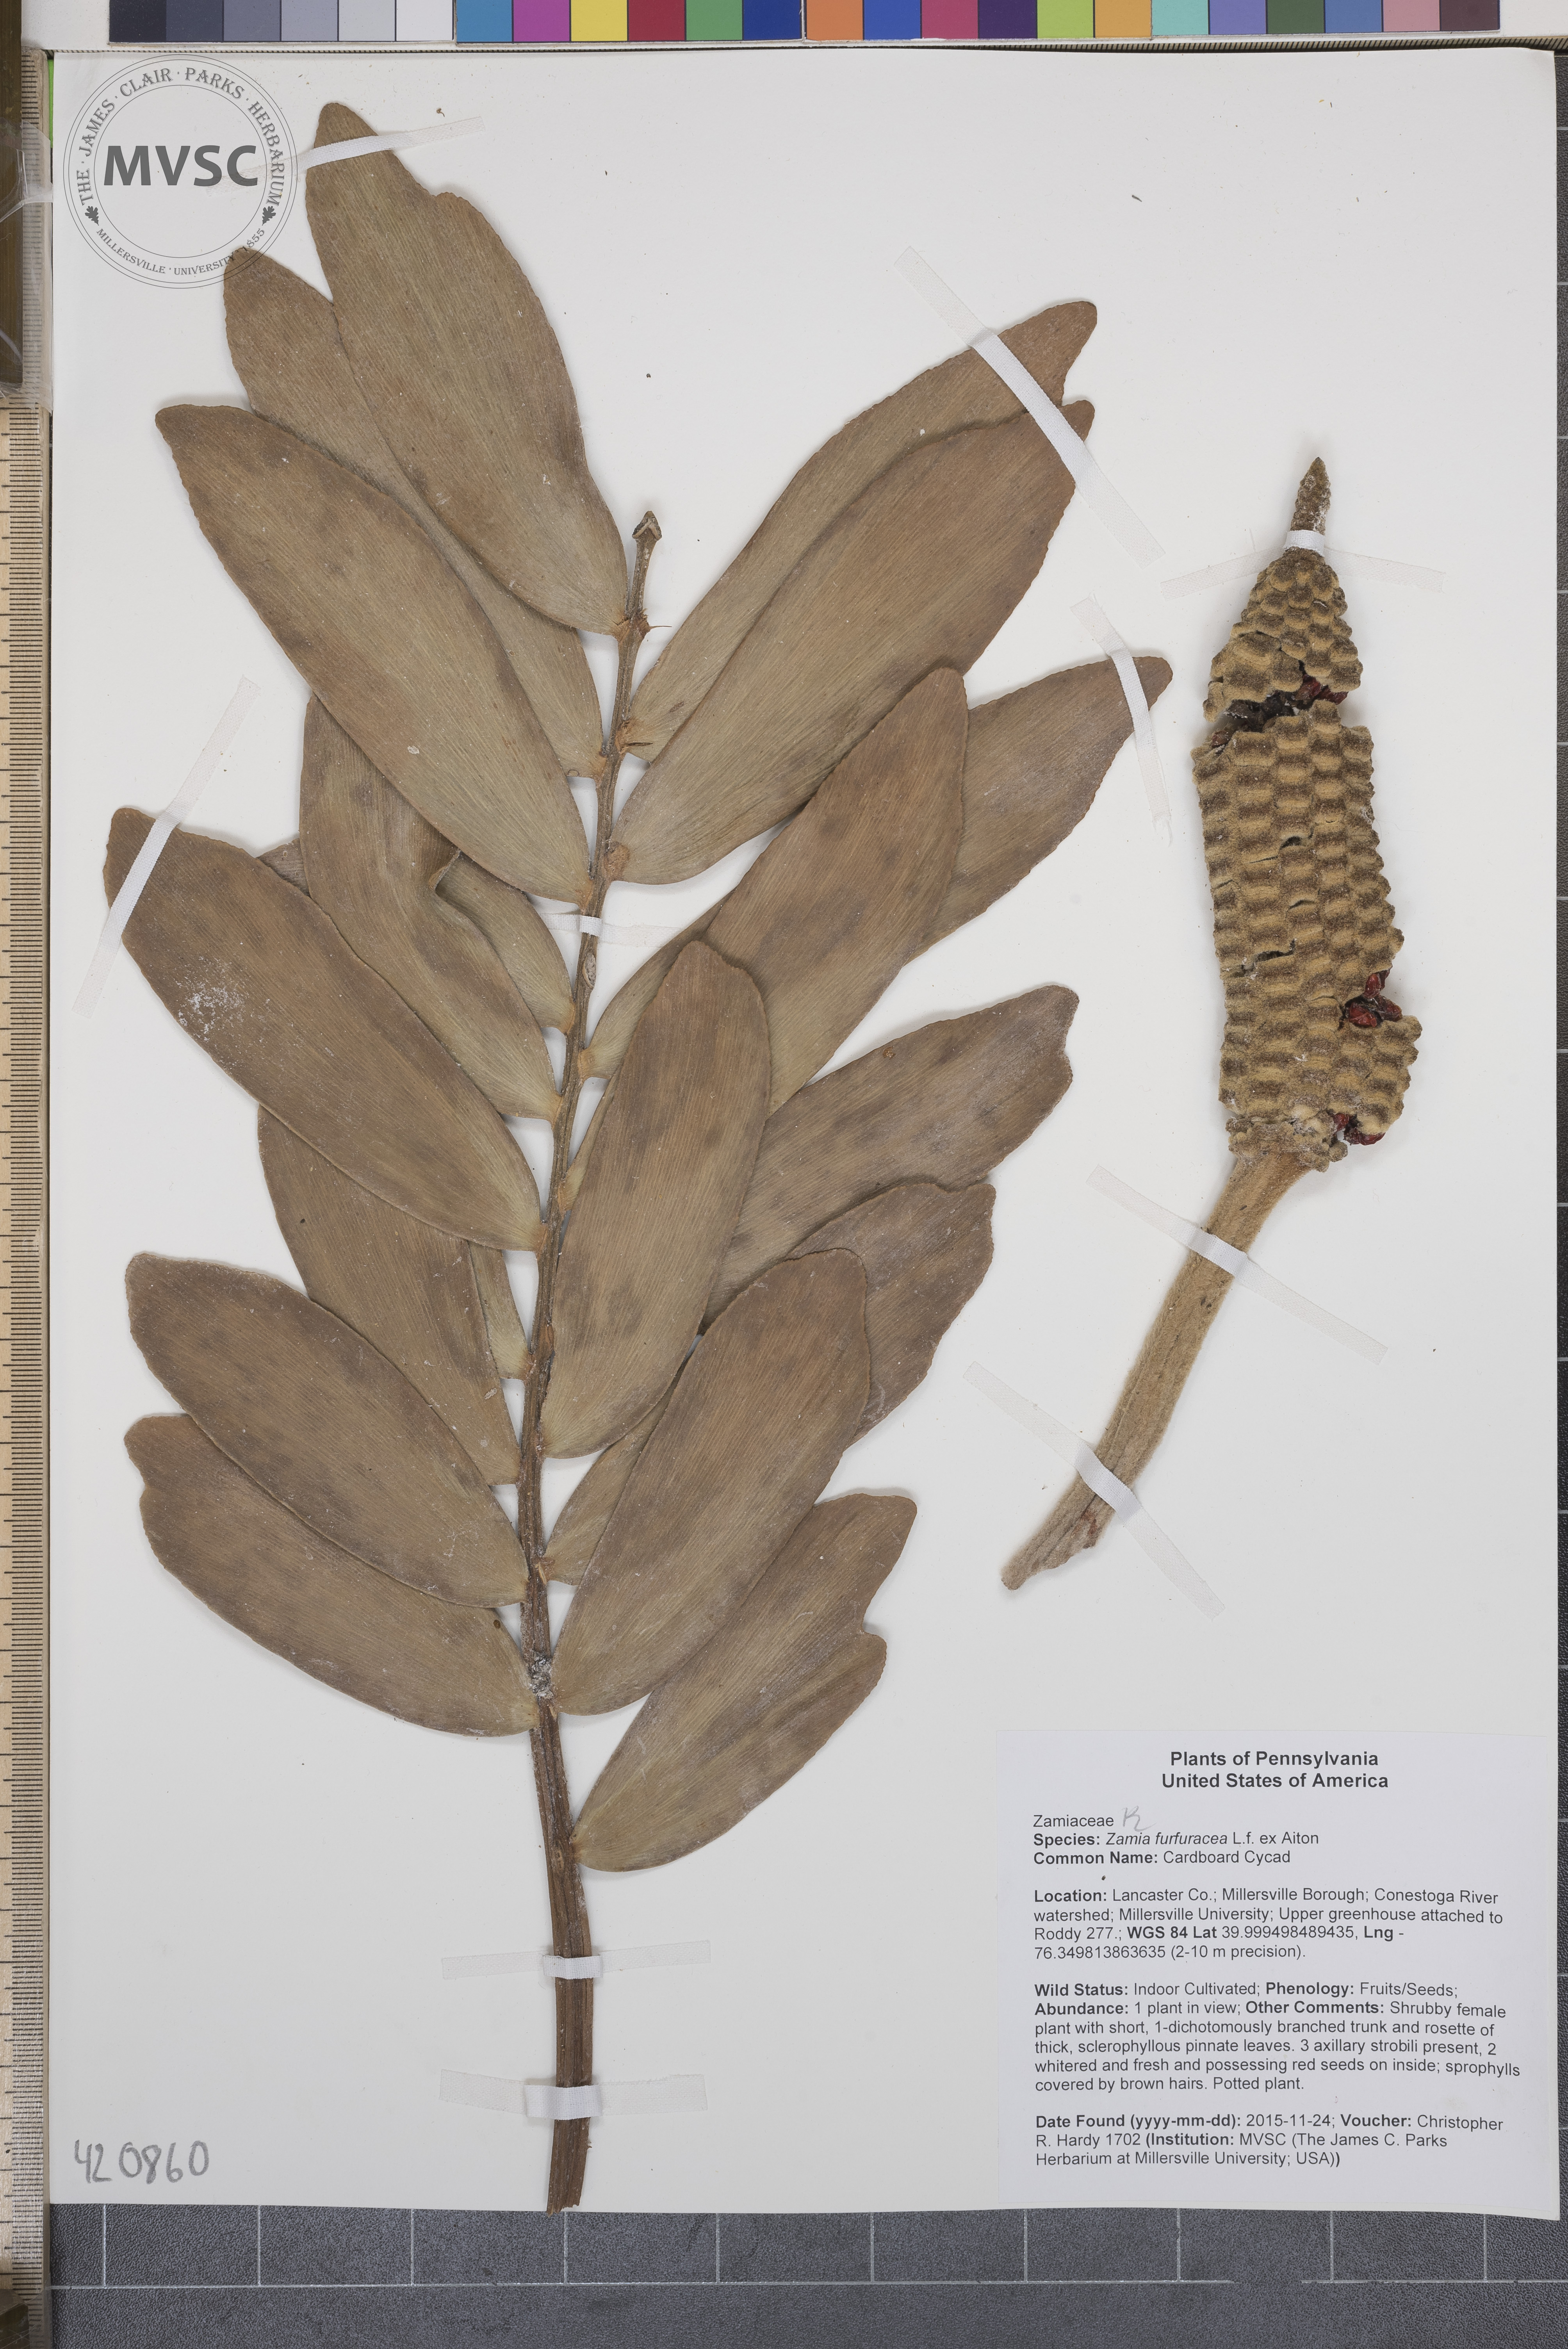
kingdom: Plantae
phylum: Tracheophyta
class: Cycadopsida
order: Cycadales
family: Zamiaceae
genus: Zamia
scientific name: Zamia furfuracea
